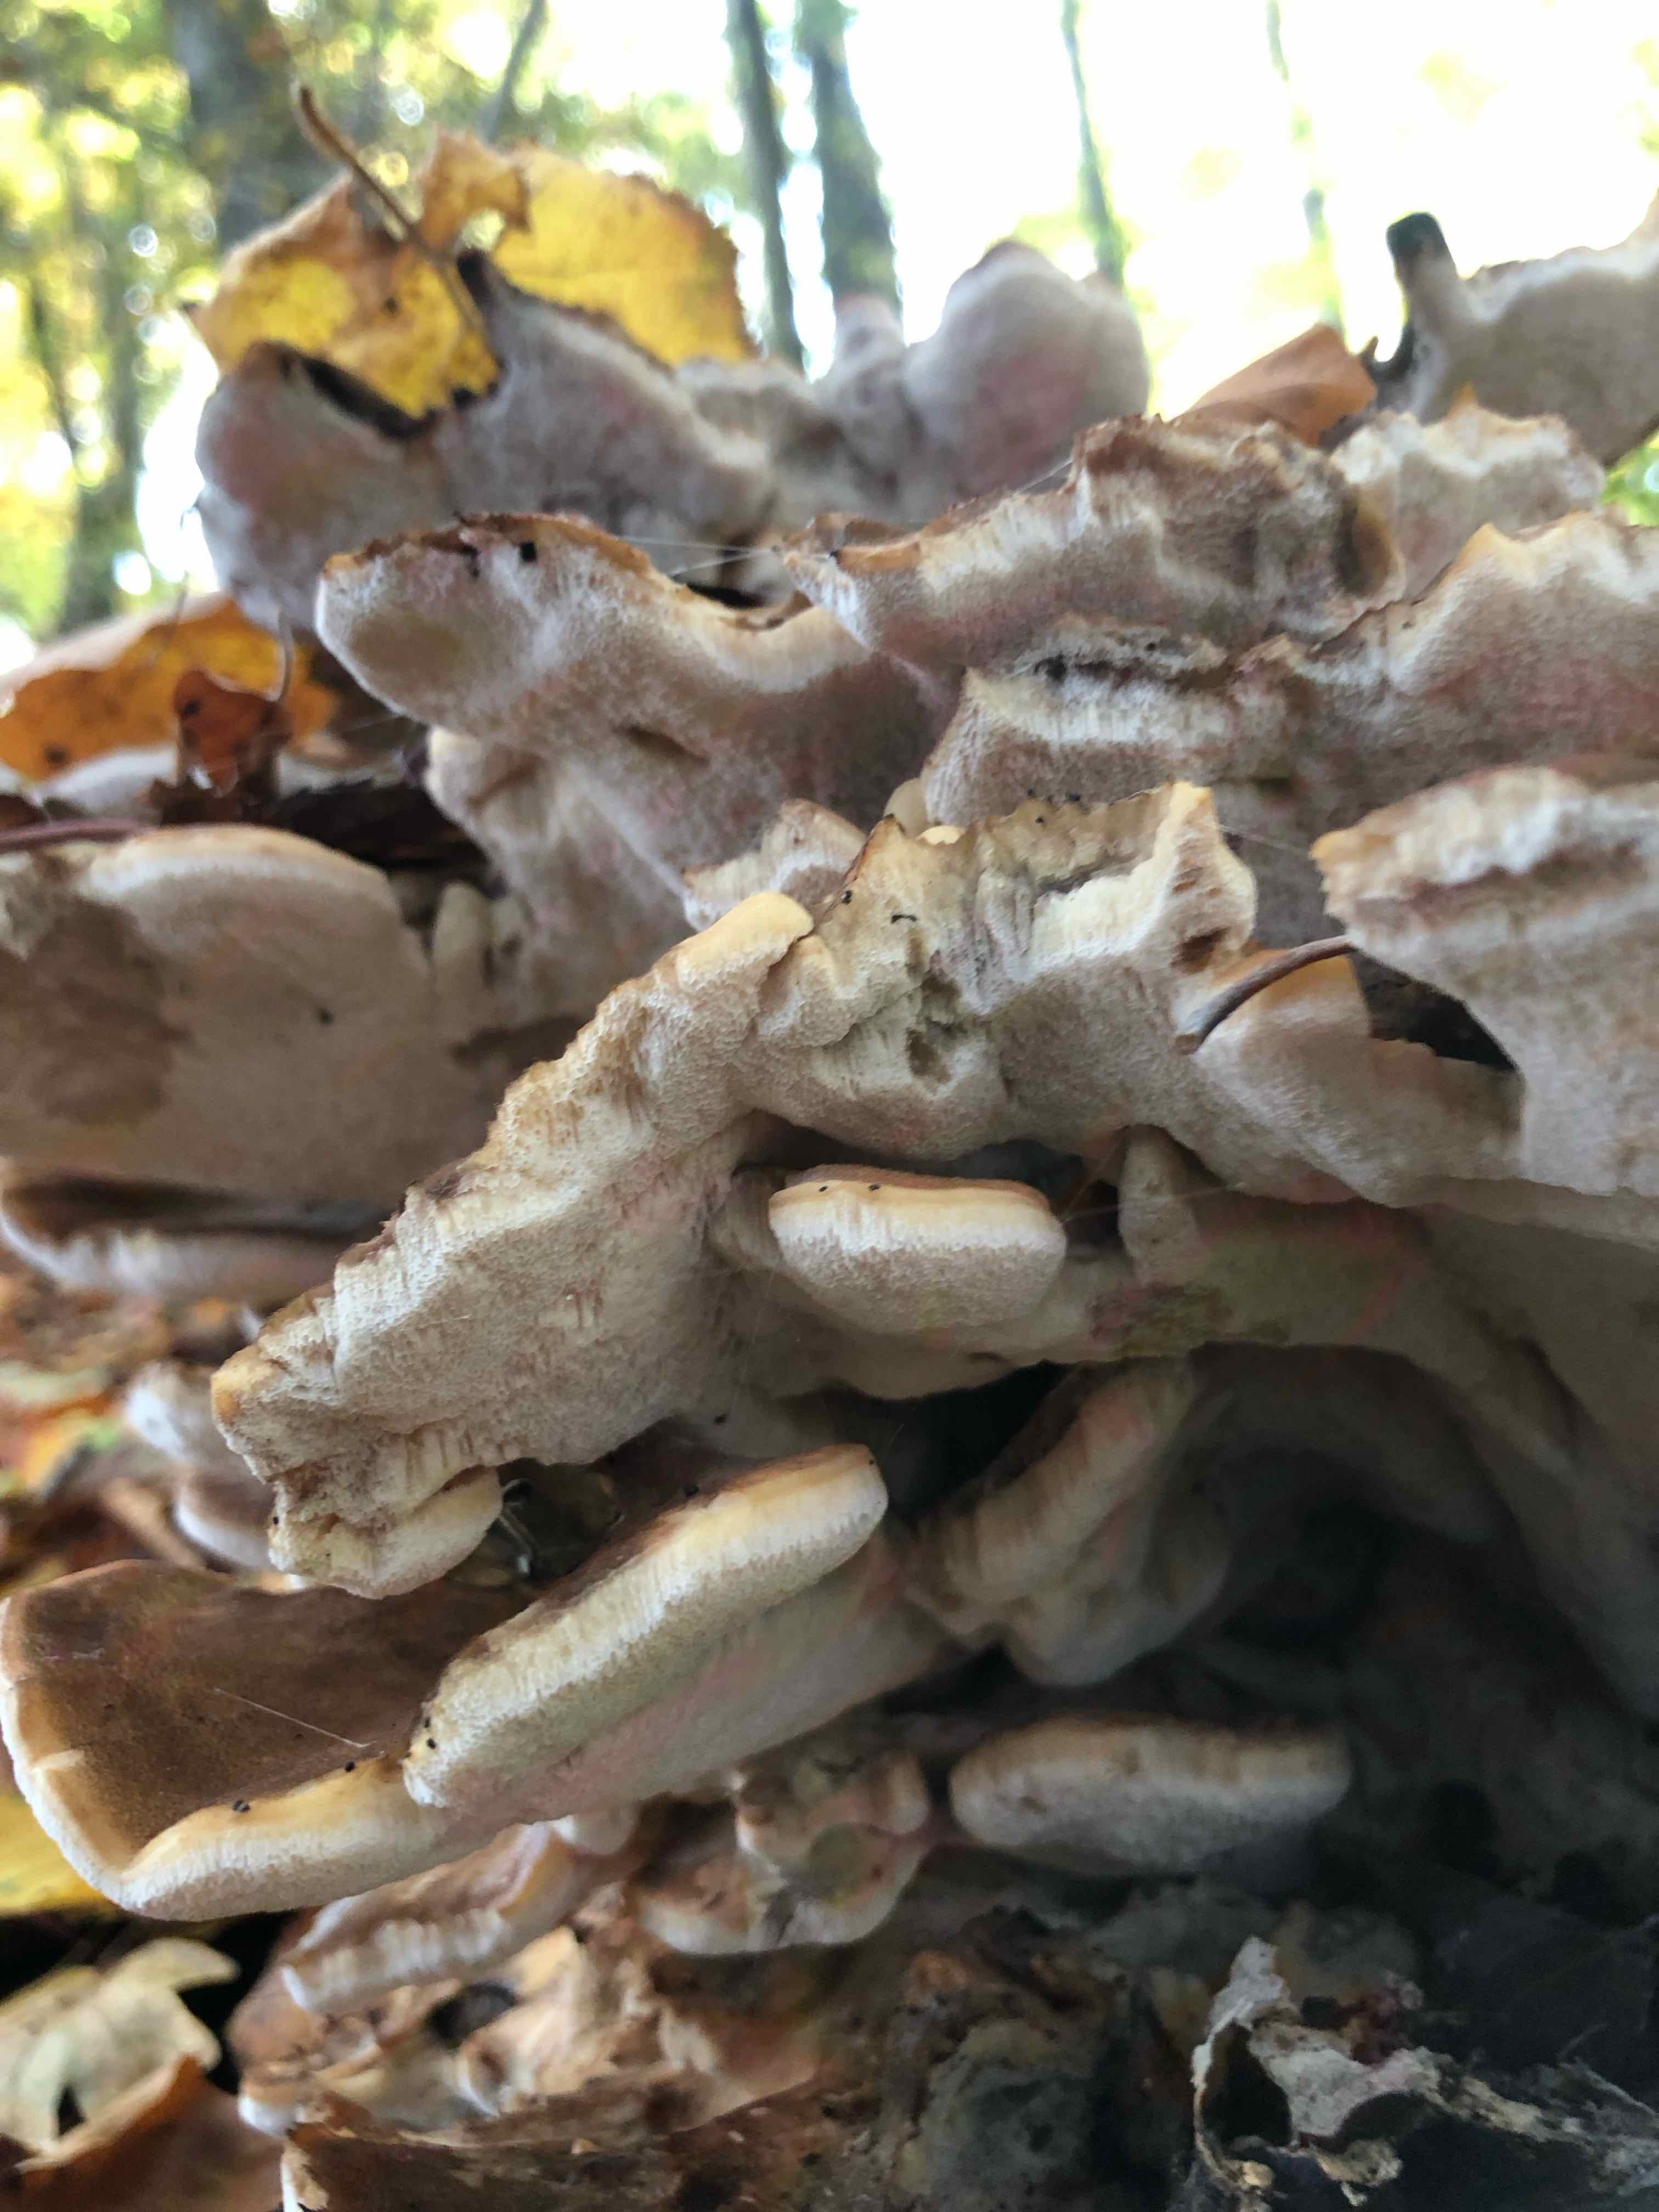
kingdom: Fungi
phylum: Basidiomycota
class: Agaricomycetes
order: Polyporales
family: Meripilaceae
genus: Meripilus
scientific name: Meripilus giganteus
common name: kæmpeporesvamp
